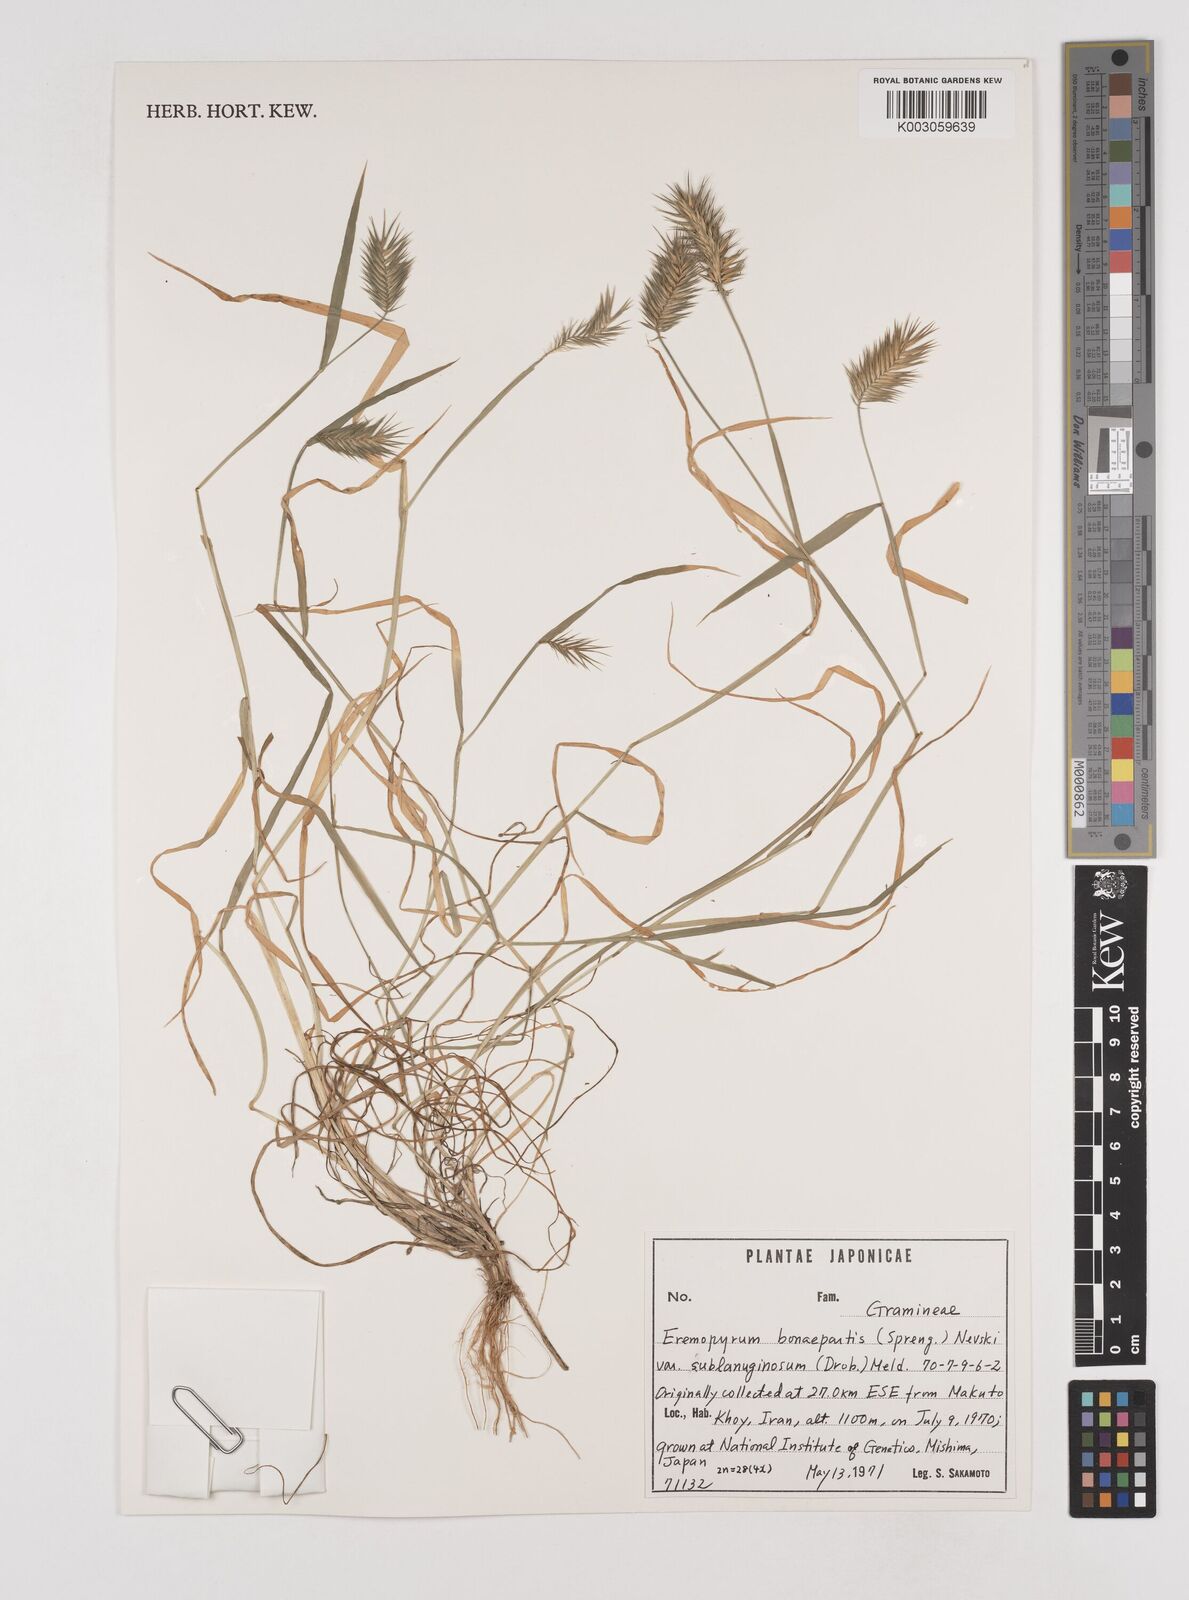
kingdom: Plantae
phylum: Tracheophyta
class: Liliopsida
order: Poales
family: Poaceae
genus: Eremopyrum
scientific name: Eremopyrum bonaepartis
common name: Tapertip false wheatgrass
